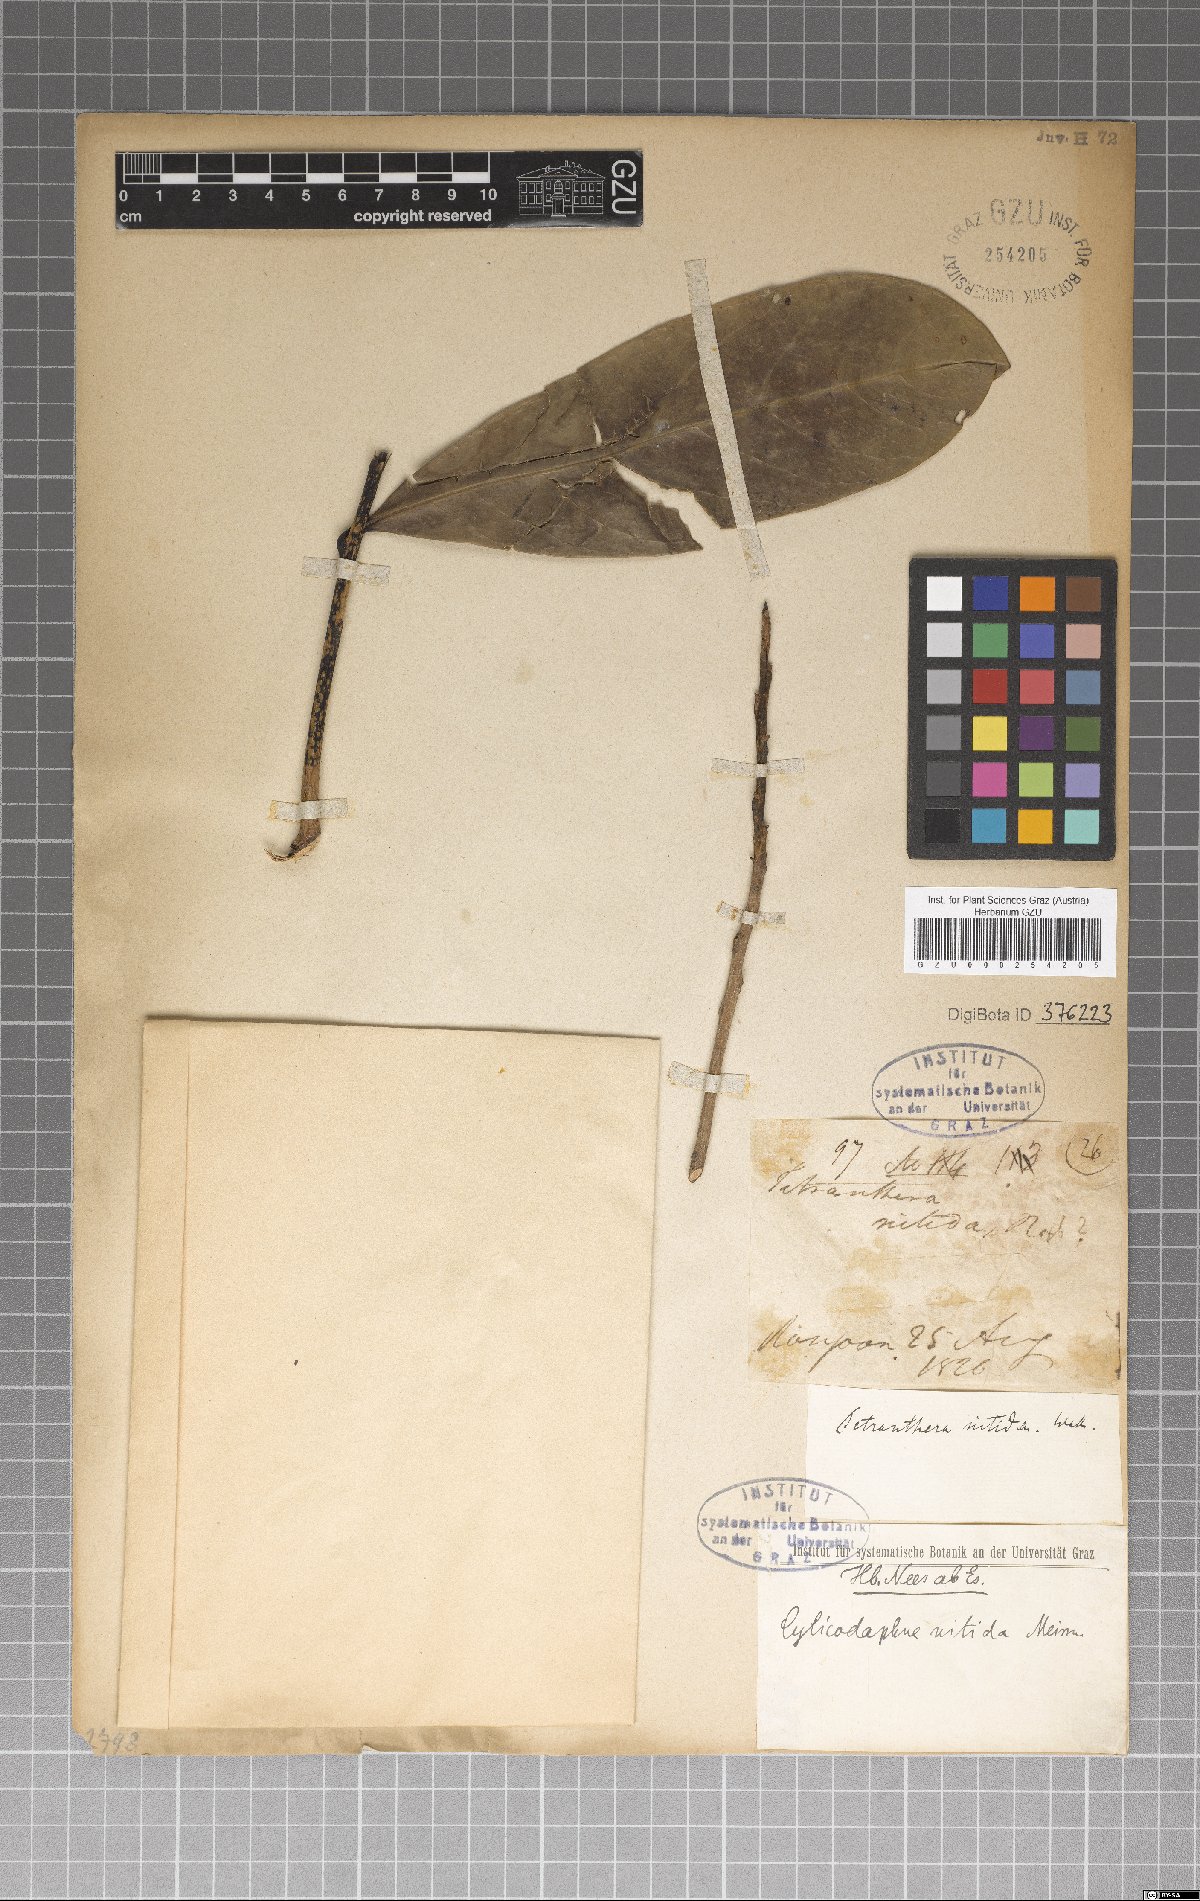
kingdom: Plantae
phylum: Tracheophyta
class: Magnoliopsida
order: Laurales
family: Lauraceae
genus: Litsea
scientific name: Litsea nitida
